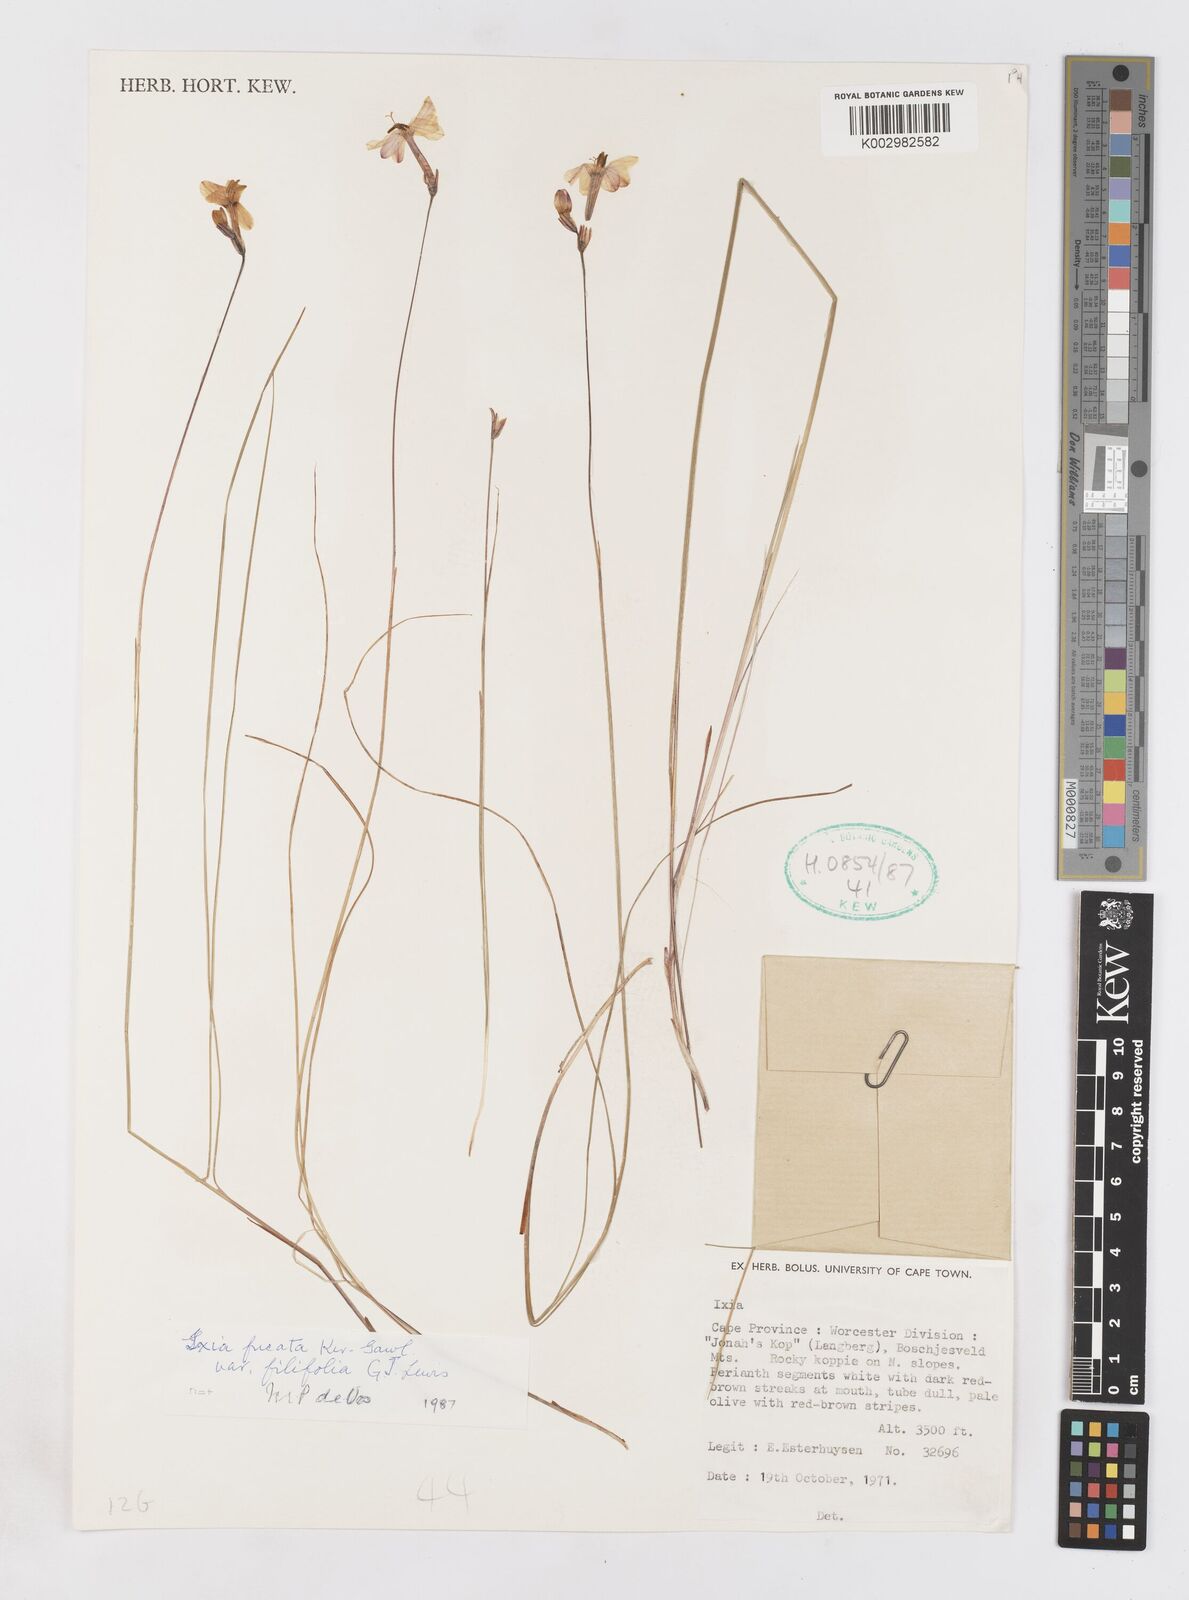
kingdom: Plantae
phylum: Tracheophyta
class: Liliopsida
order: Asparagales
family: Iridaceae
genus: Ixia
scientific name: Ixia stenophylla
